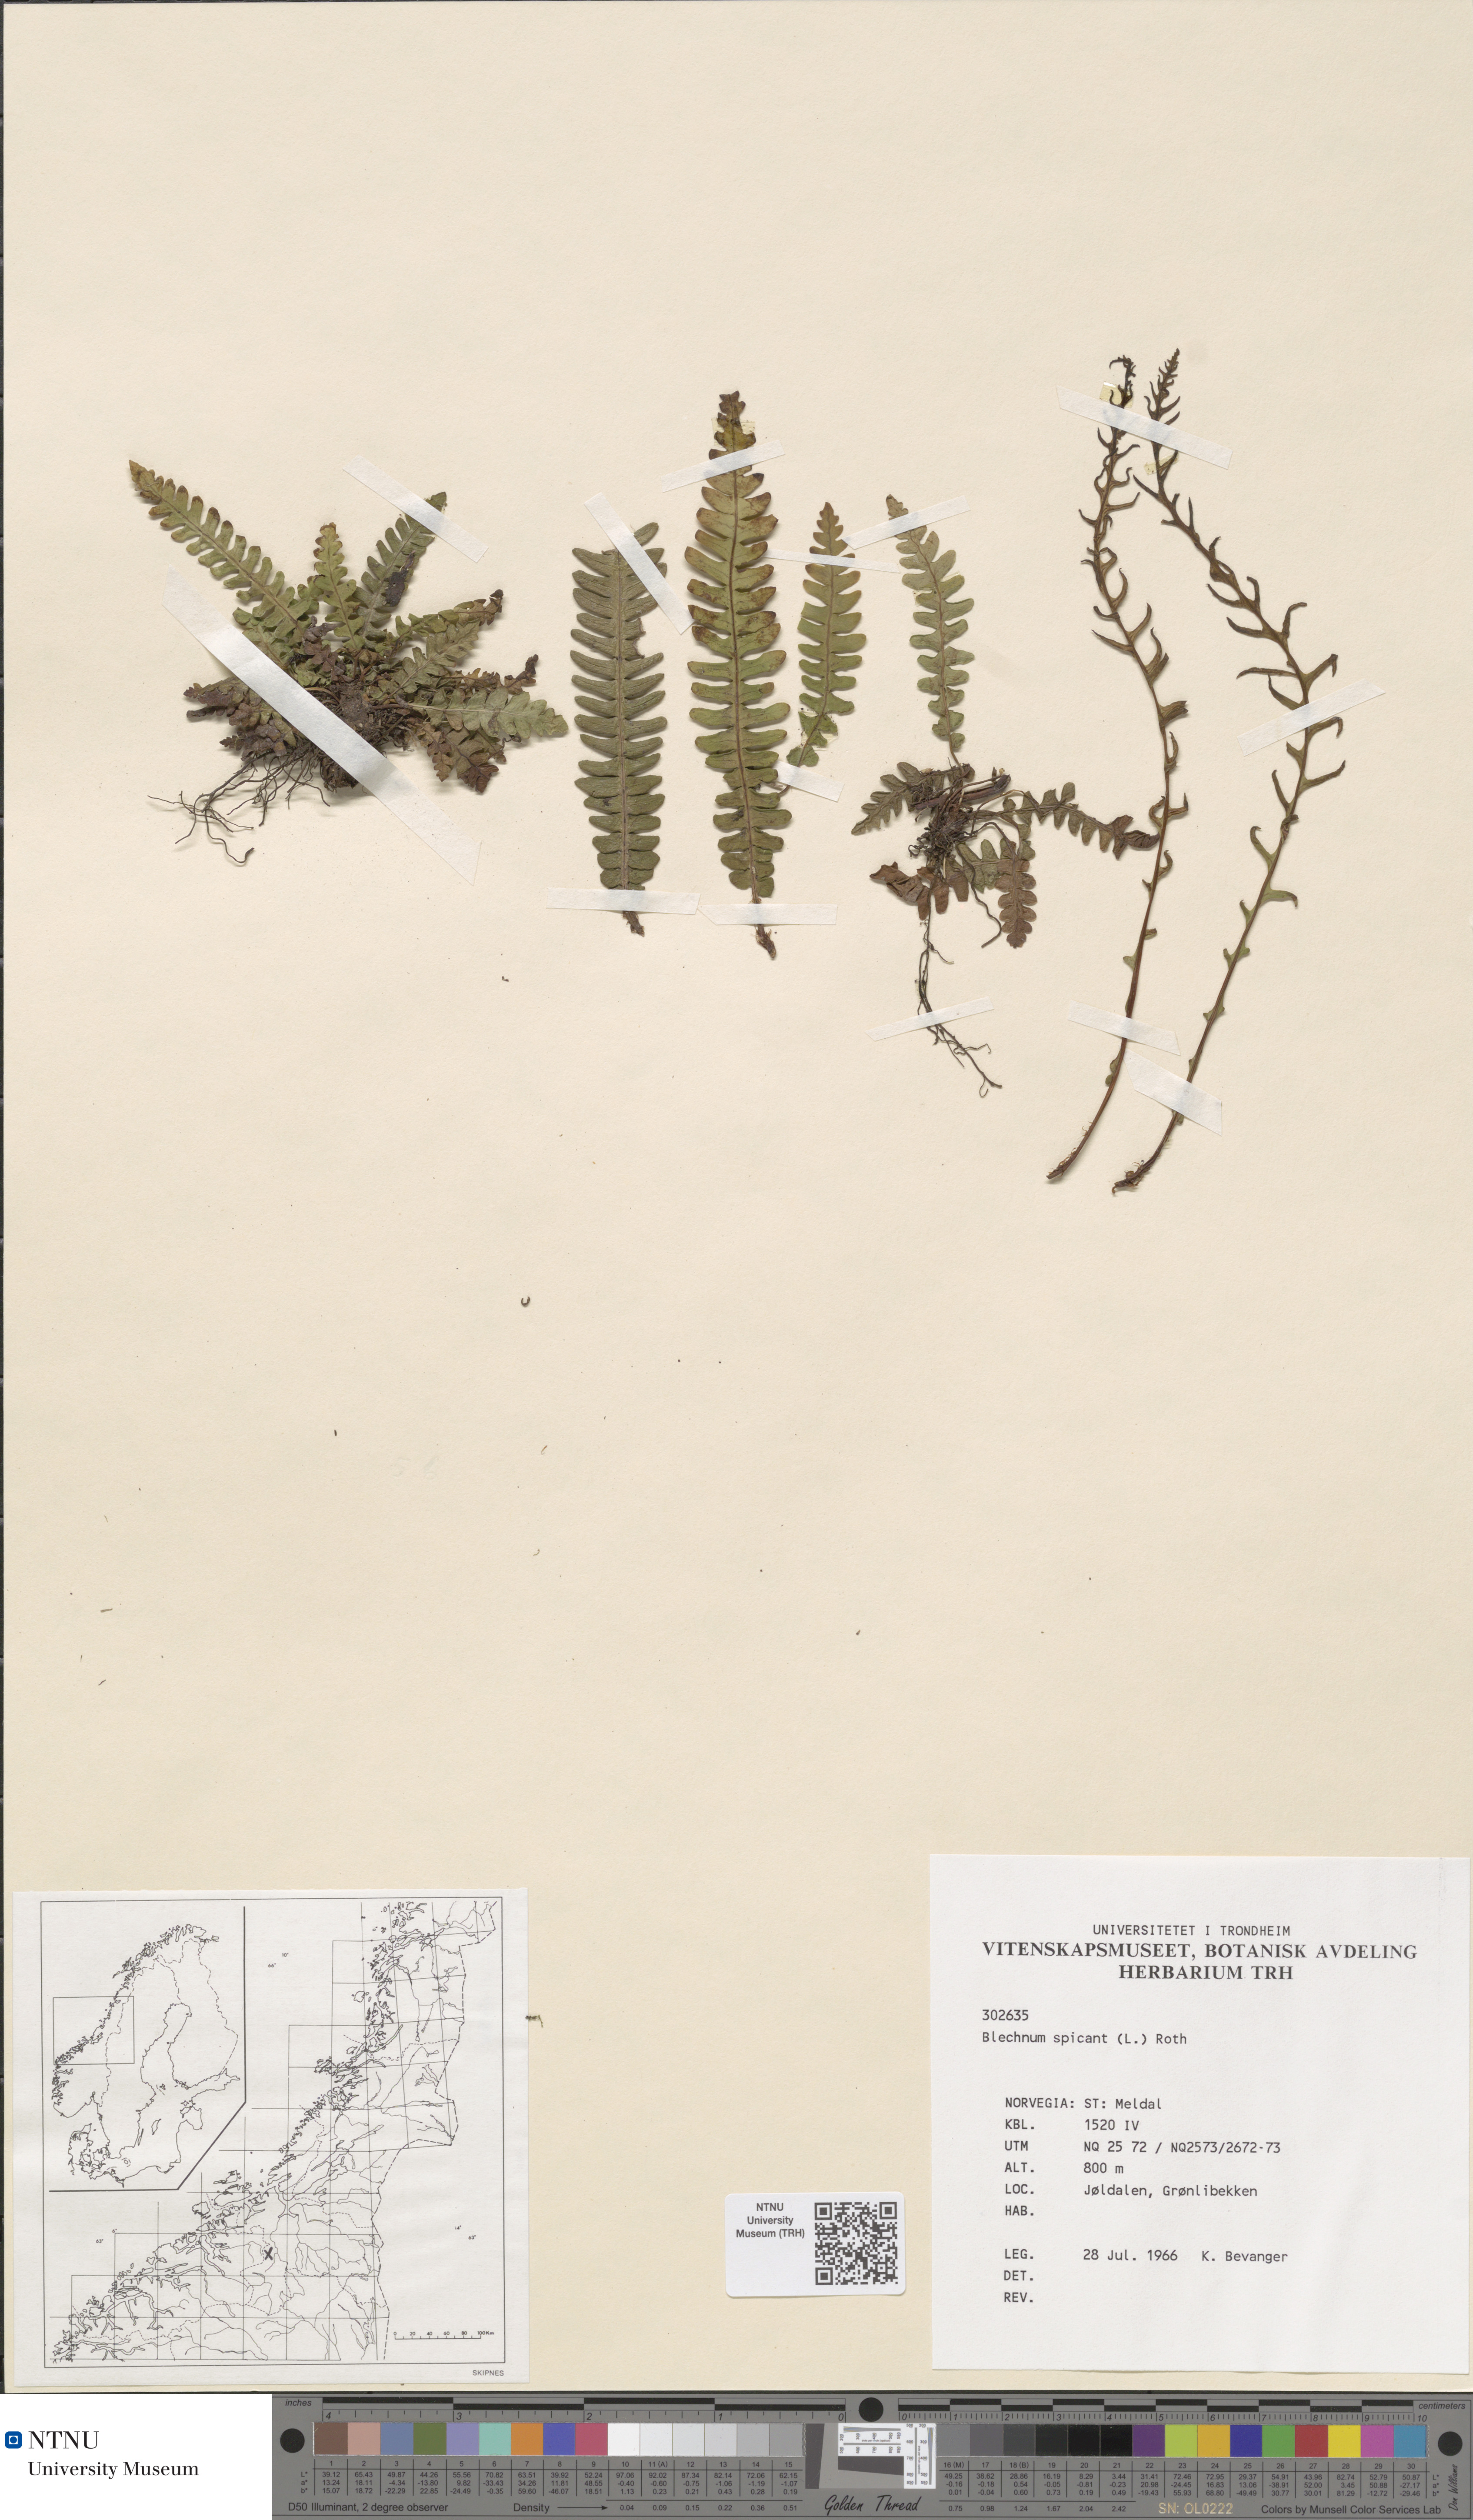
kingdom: Plantae
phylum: Tracheophyta
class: Polypodiopsida
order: Polypodiales
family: Blechnaceae
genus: Struthiopteris
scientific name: Struthiopteris spicant
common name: Deer fern
